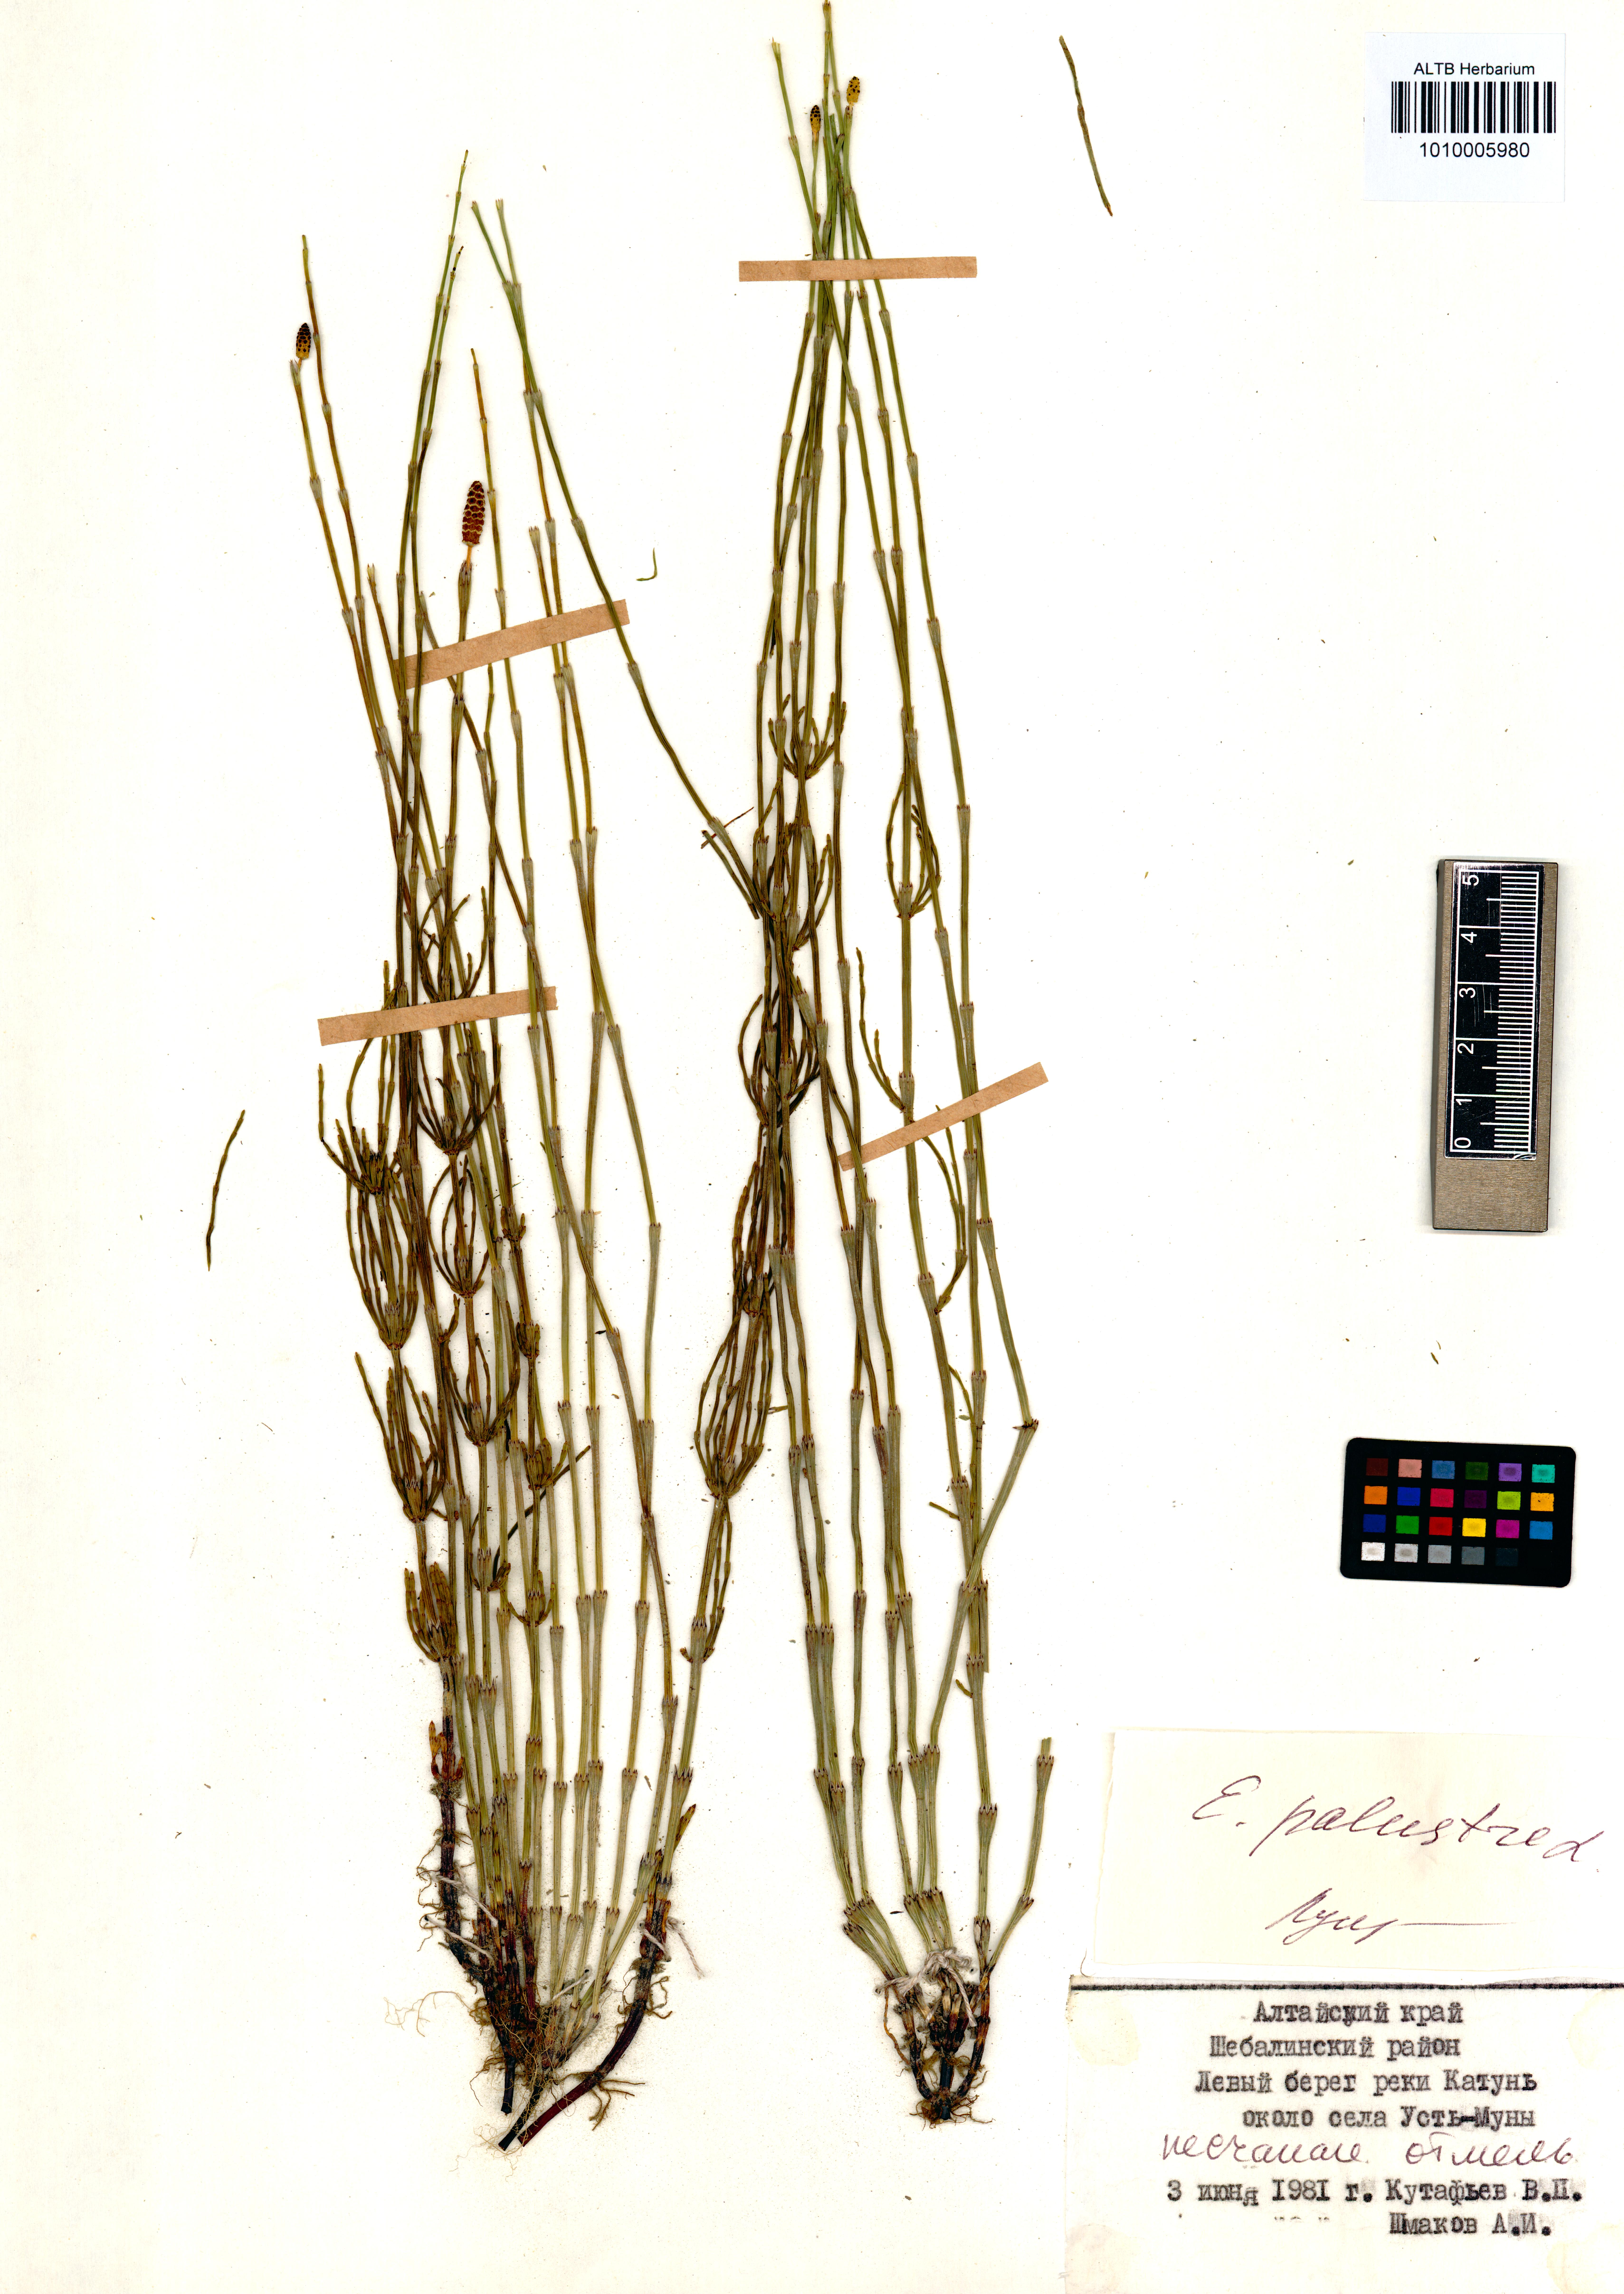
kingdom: Plantae
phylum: Tracheophyta
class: Polypodiopsida
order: Equisetales
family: Equisetaceae
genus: Equisetum
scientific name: Equisetum palustre
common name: Marsh horsetail
